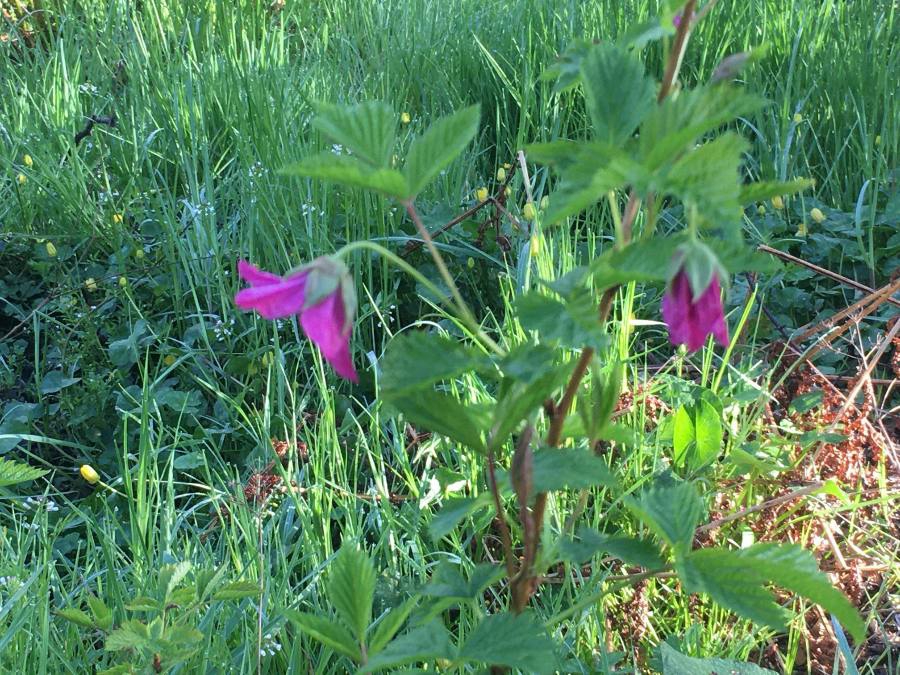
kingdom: Plantae
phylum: Tracheophyta
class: Magnoliopsida
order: Rosales
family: Rosaceae
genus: Rubus
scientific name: Rubus spectabilis
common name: Laksebær
